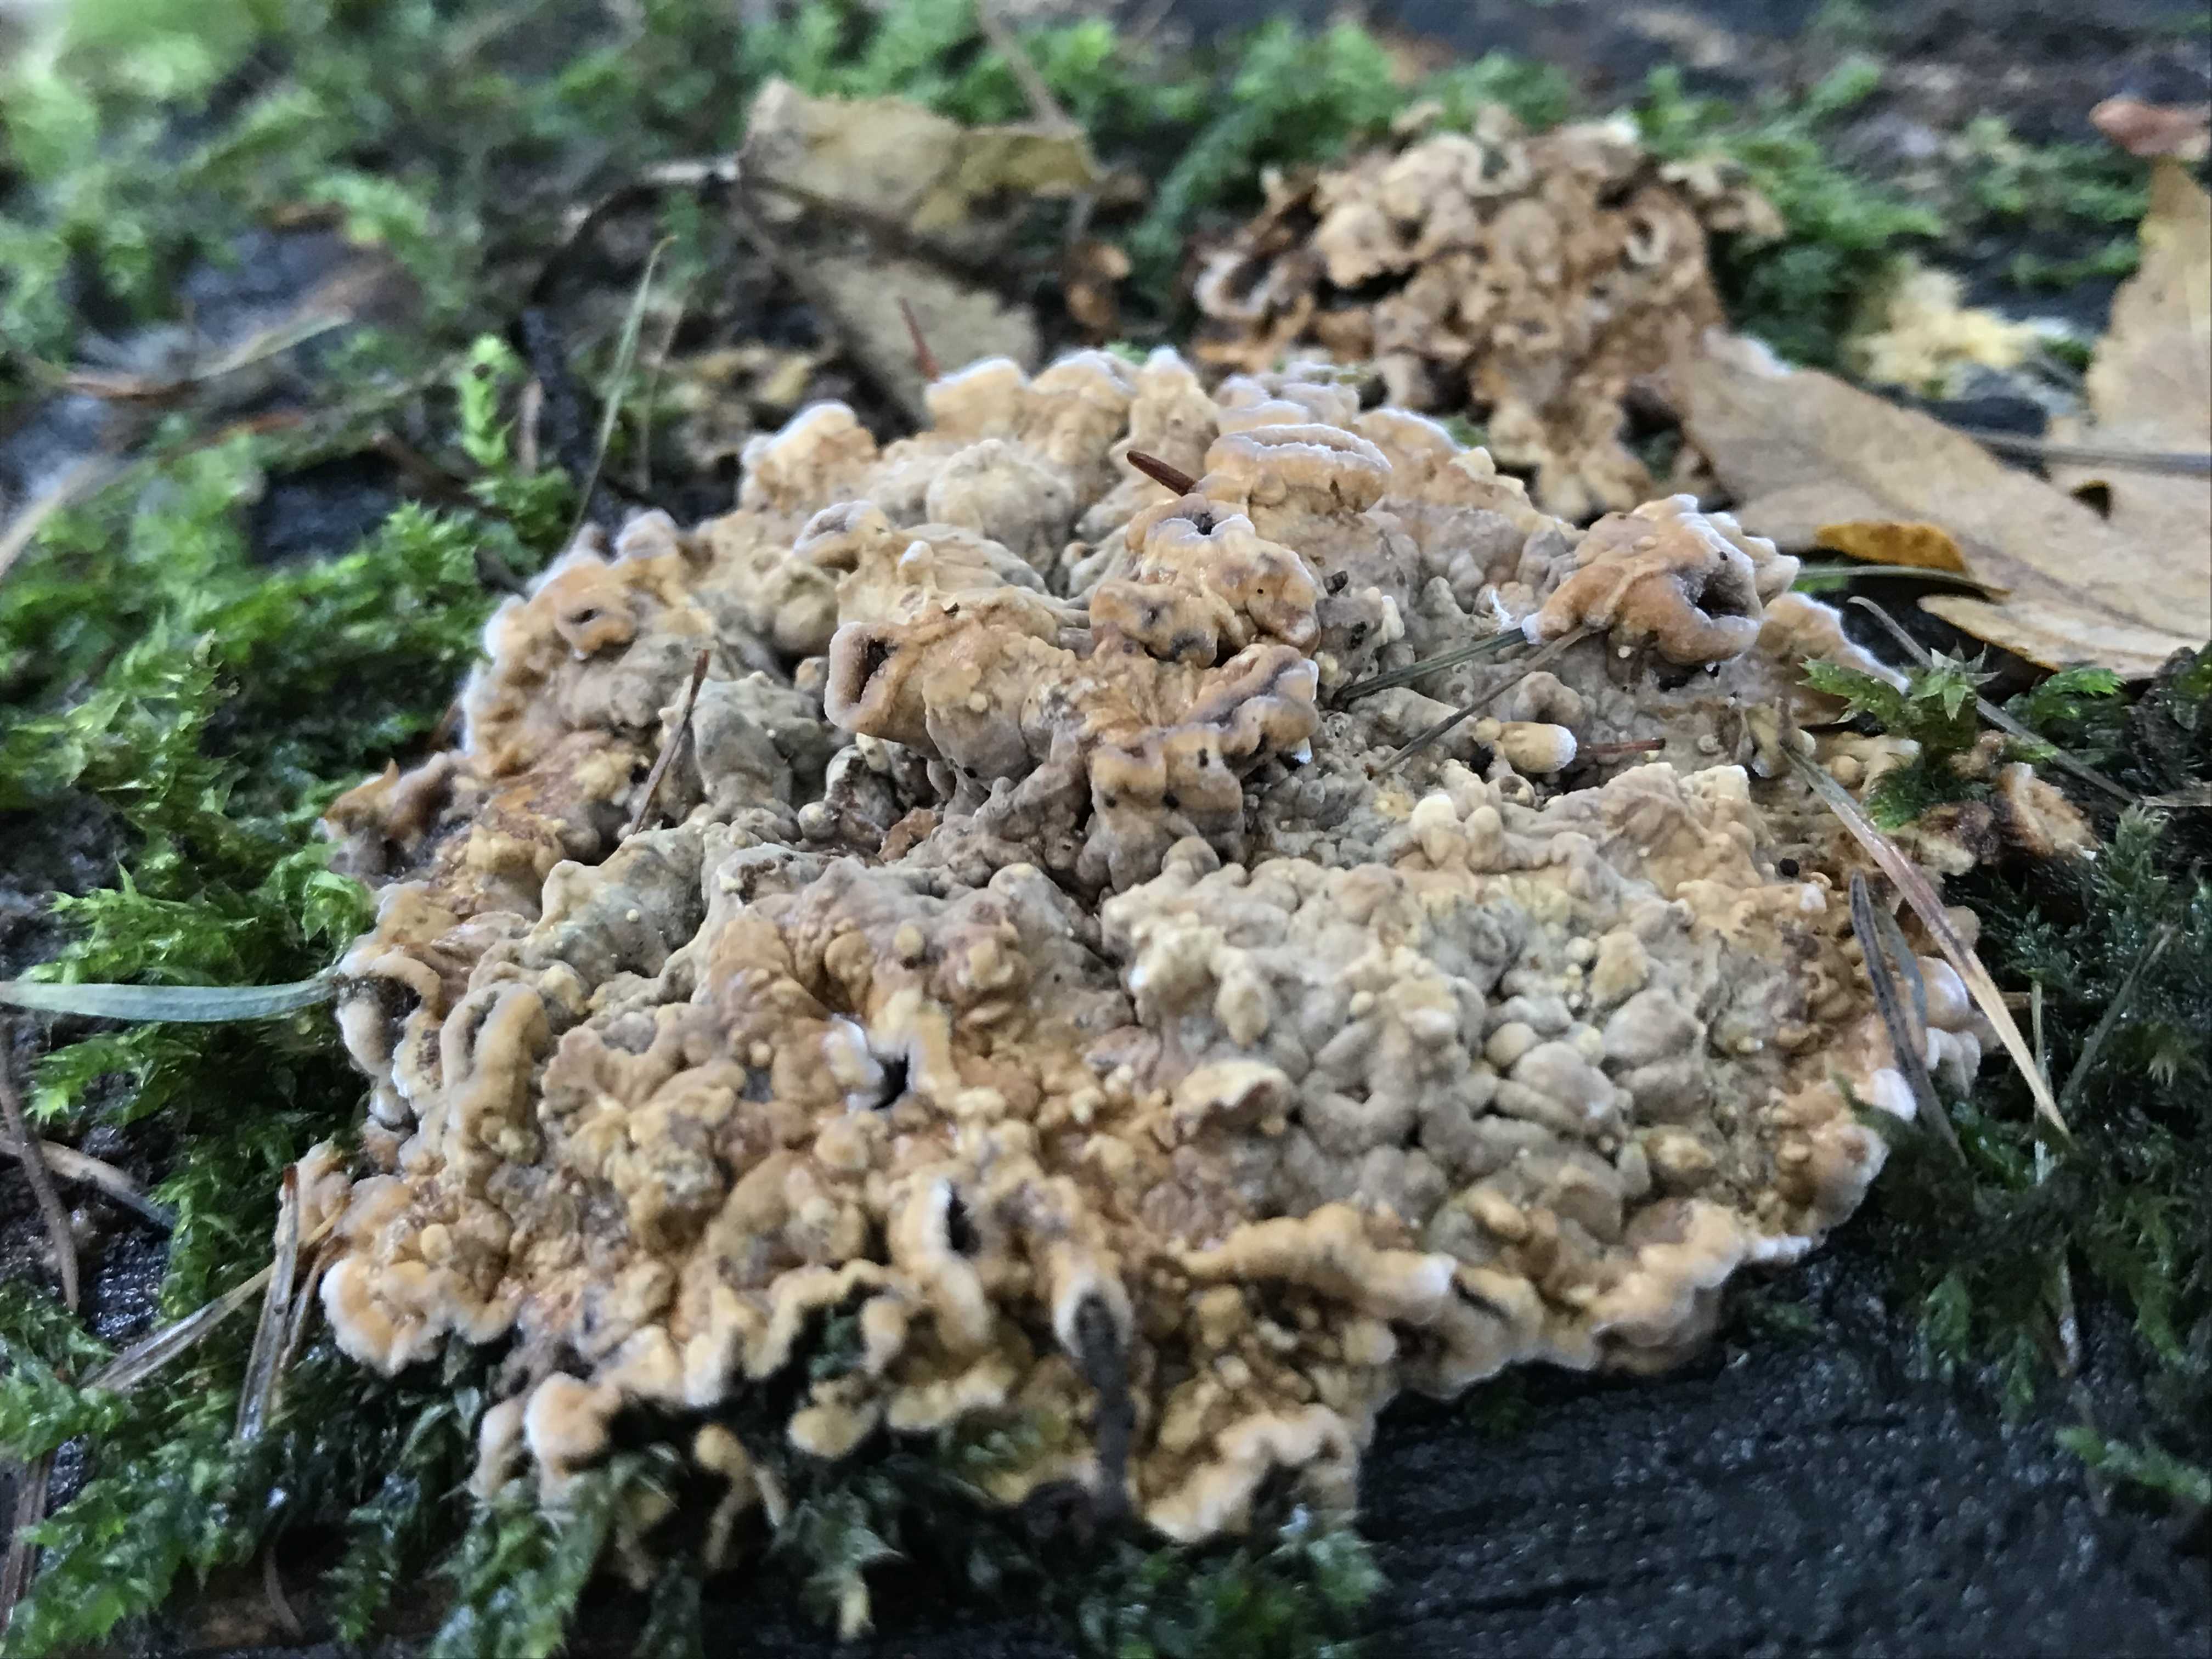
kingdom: Fungi
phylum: Basidiomycota
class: Agaricomycetes
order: Russulales
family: Stereaceae
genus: Stereum
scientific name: Stereum
